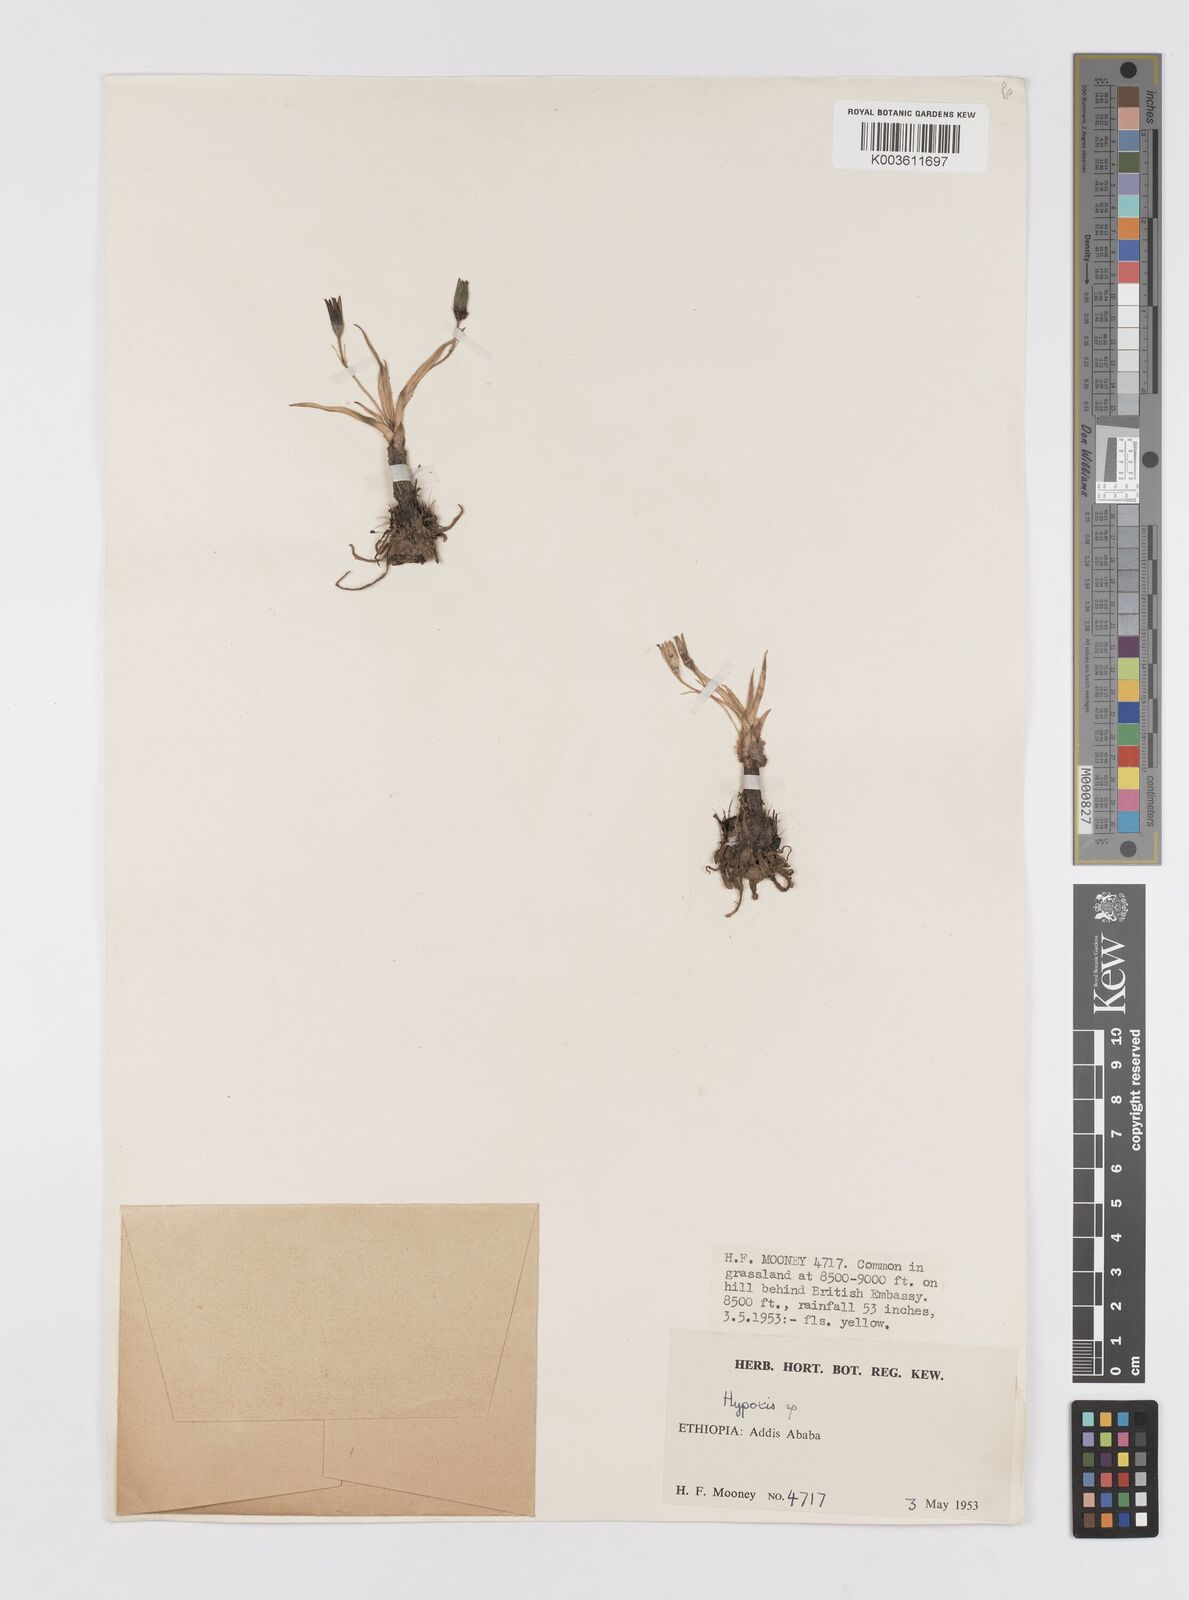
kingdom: Plantae
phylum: Tracheophyta
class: Liliopsida
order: Asparagales
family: Hypoxidaceae
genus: Hypoxis
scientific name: Hypoxis
